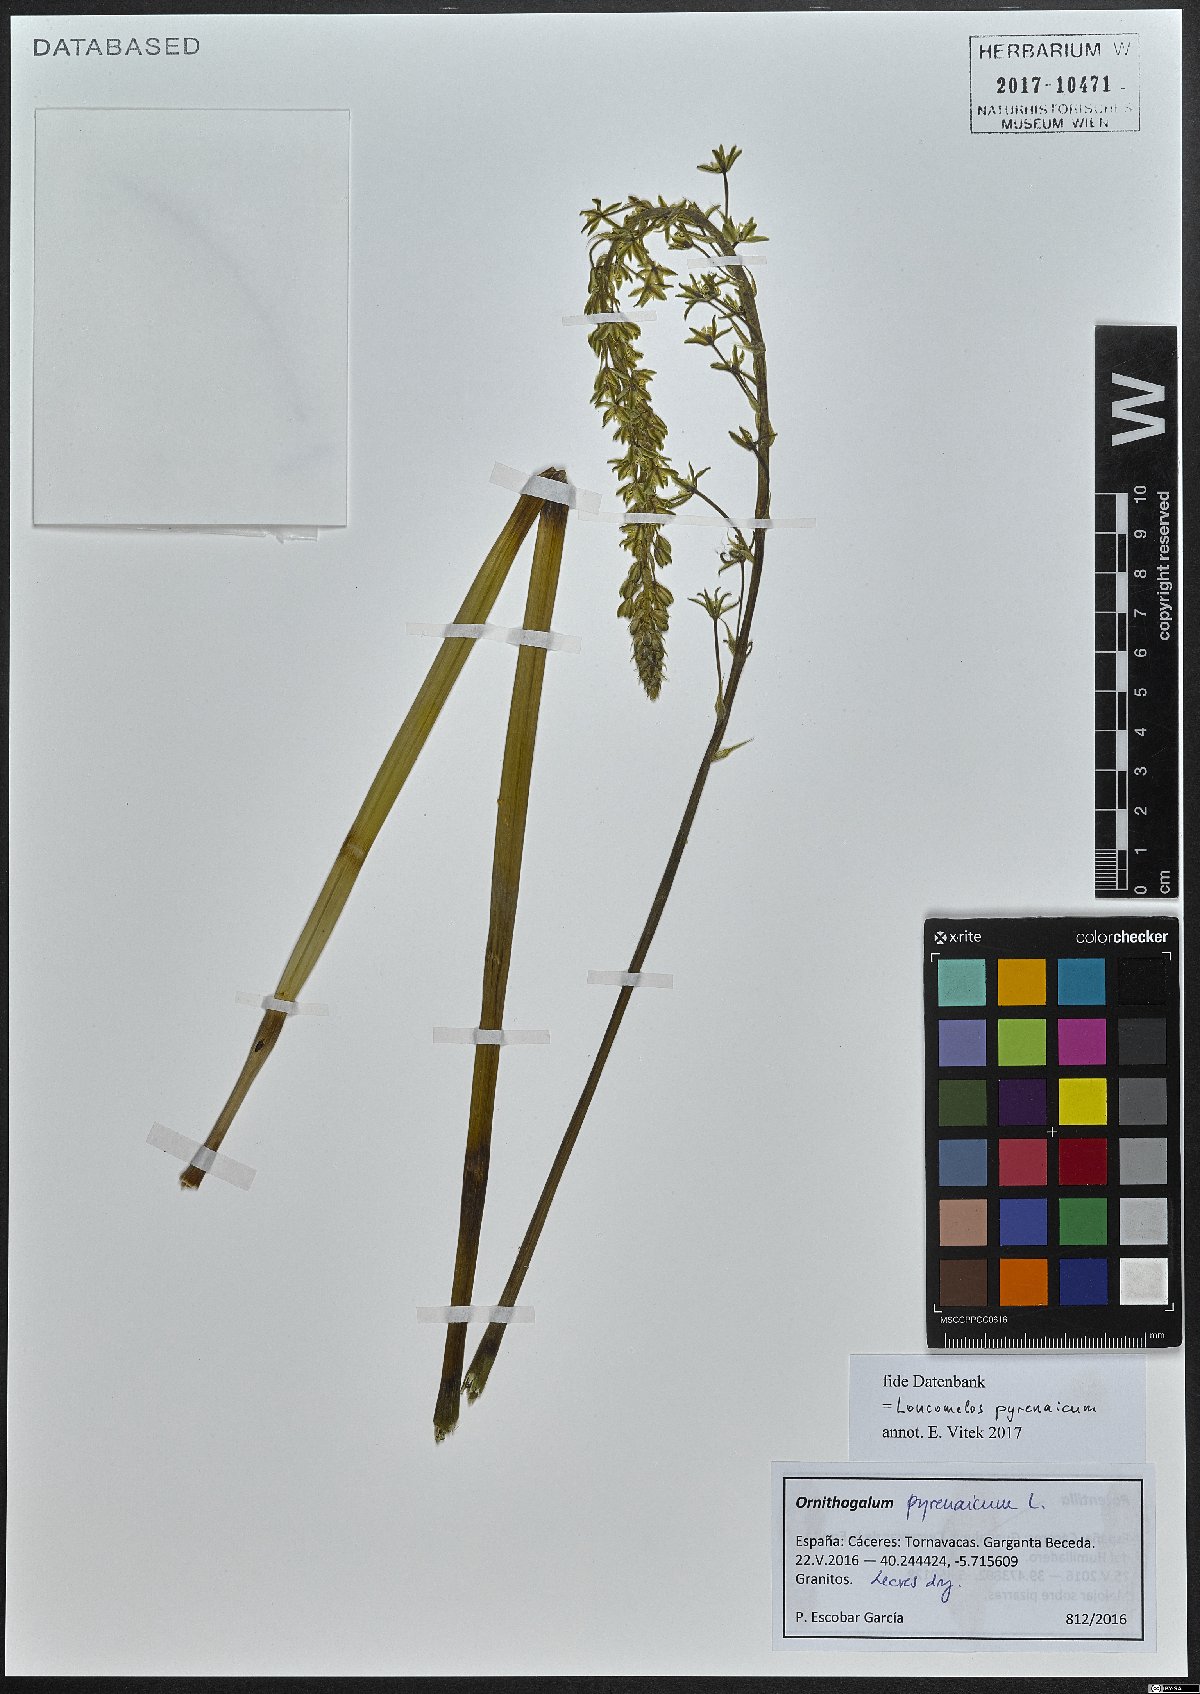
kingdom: Plantae
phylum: Tracheophyta
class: Liliopsida
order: Asparagales
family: Asparagaceae
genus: Ornithogalum
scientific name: Ornithogalum pyrenaicum
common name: Spiked star-of-bethlehem
